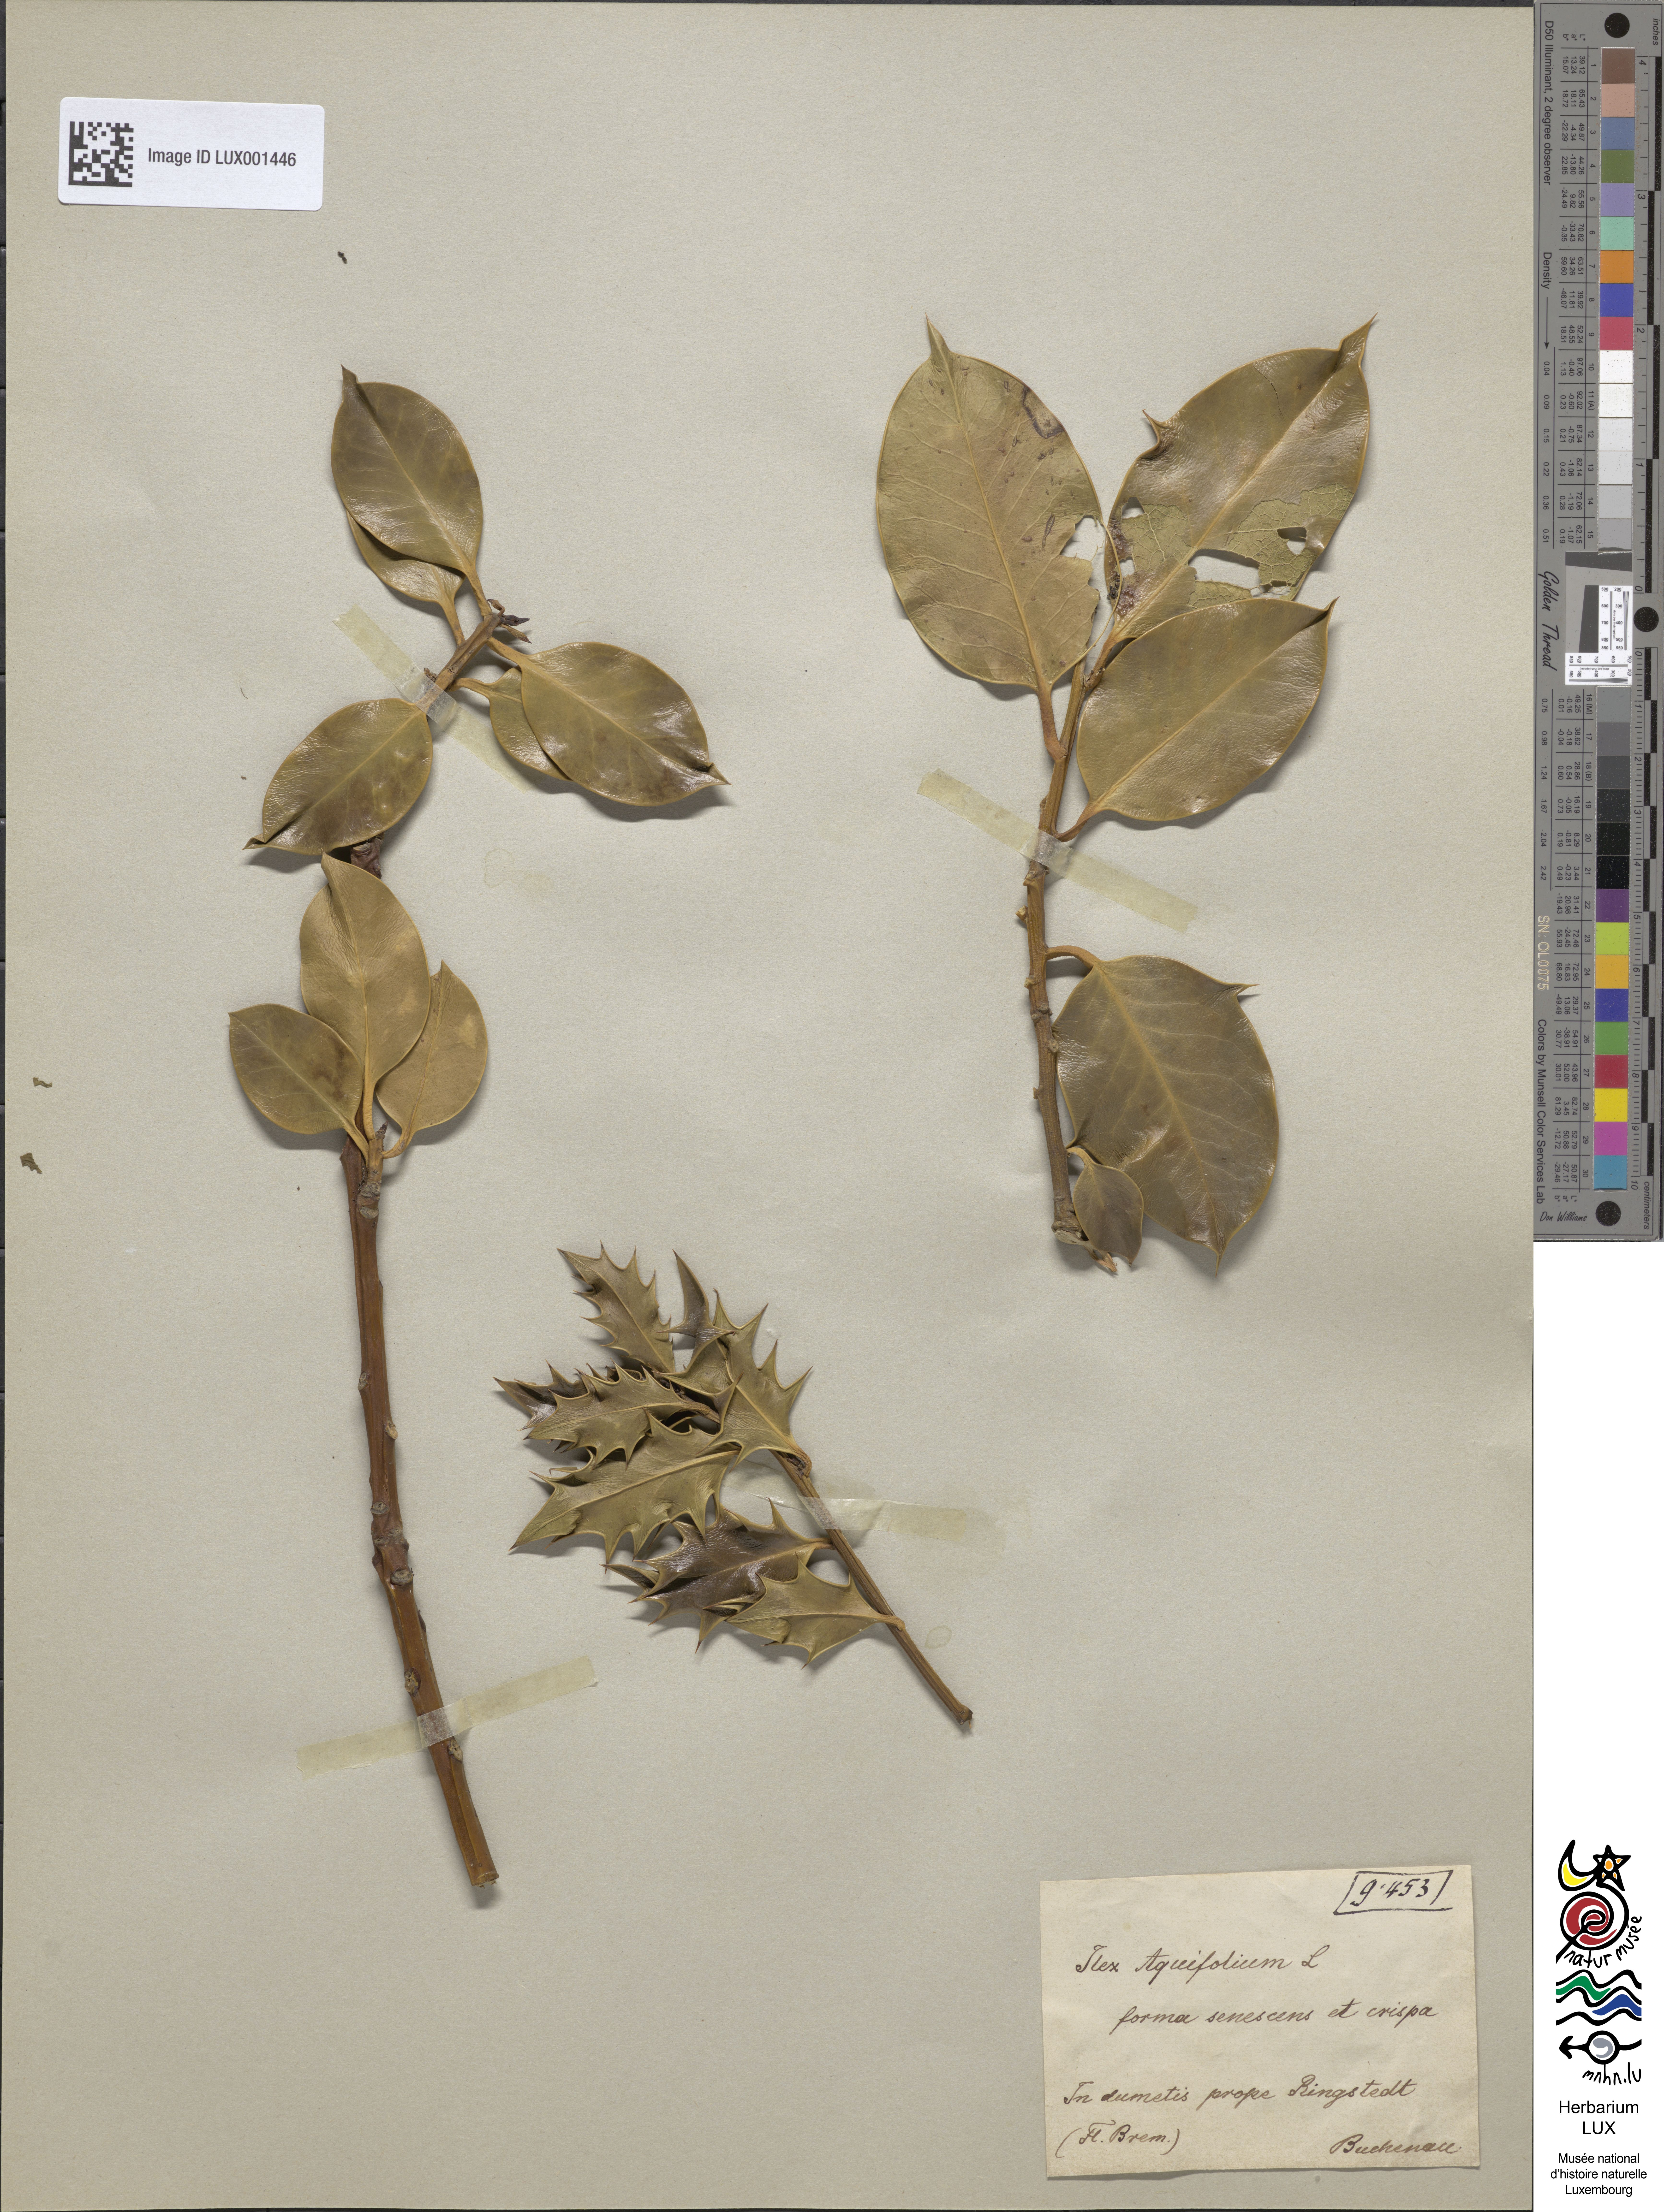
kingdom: Plantae
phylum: Tracheophyta
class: Magnoliopsida
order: Aquifoliales
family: Aquifoliaceae
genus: Ilex
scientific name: Ilex aquifolium
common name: English holly
